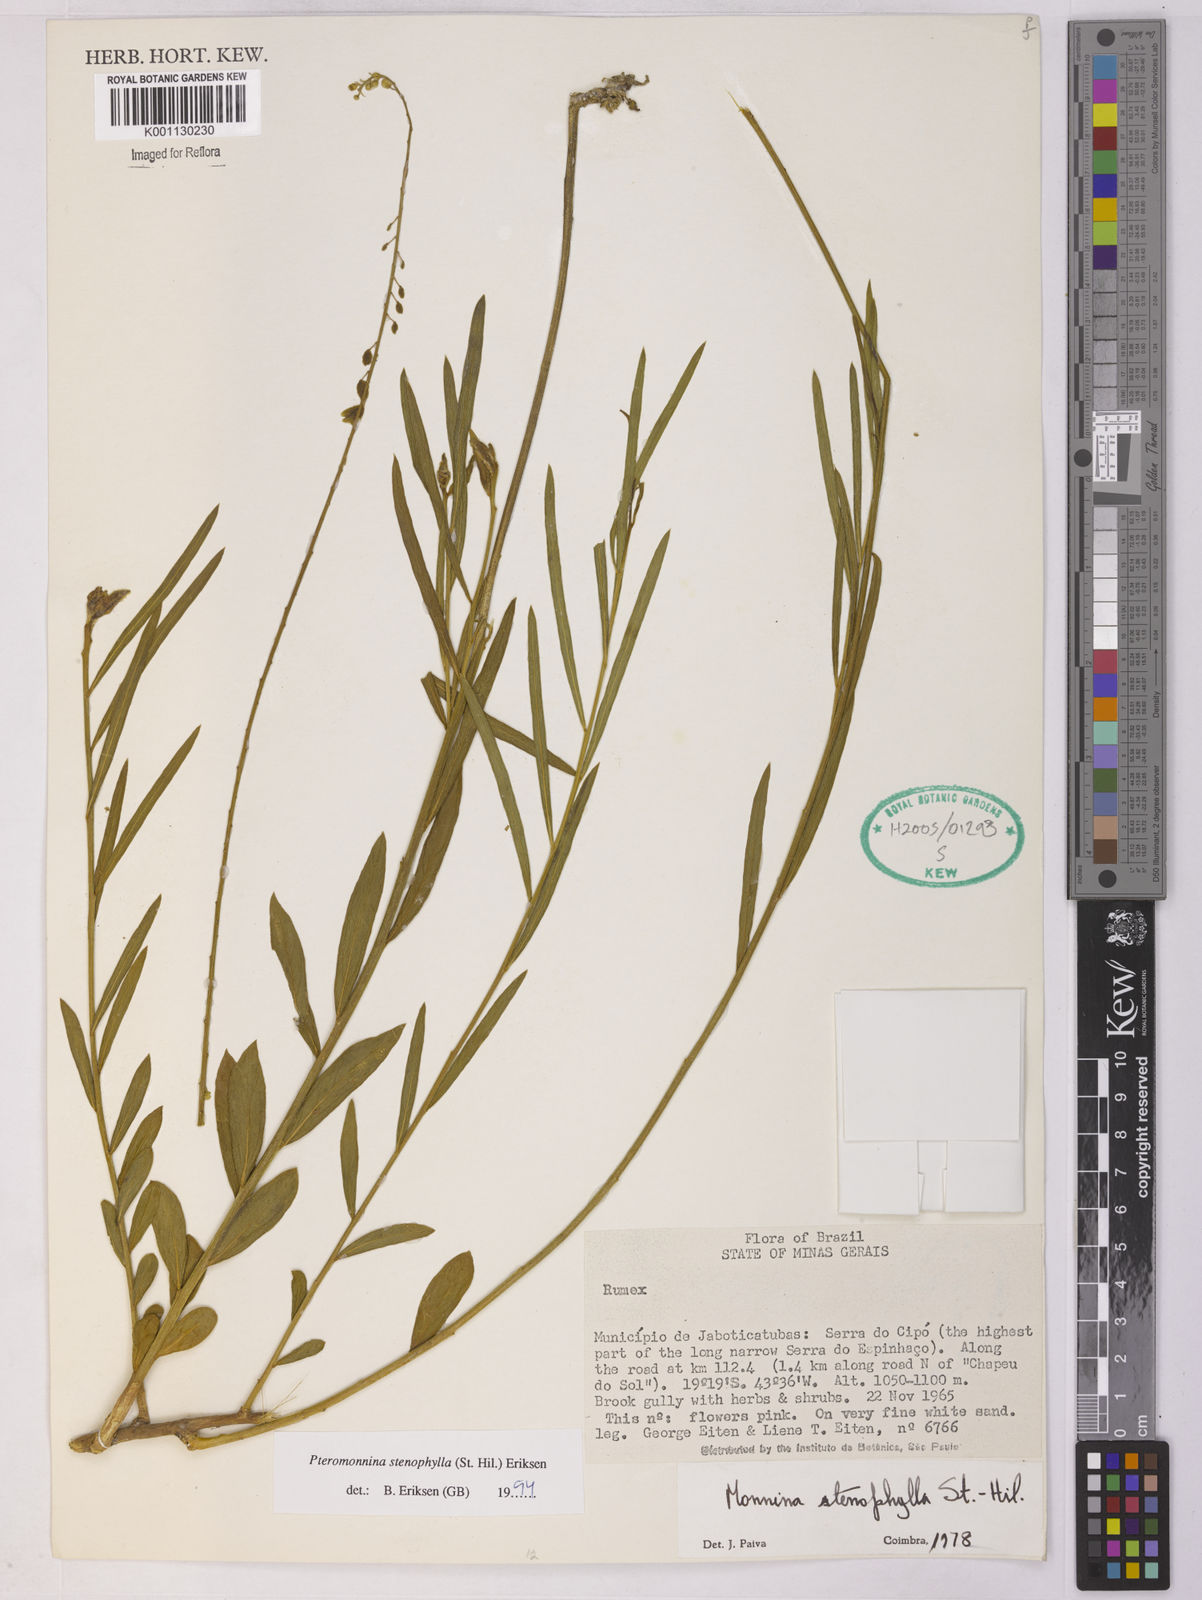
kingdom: Plantae
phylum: Tracheophyta
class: Magnoliopsida
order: Fabales
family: Polygalaceae
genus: Monnina
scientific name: Monnina stenophylla
